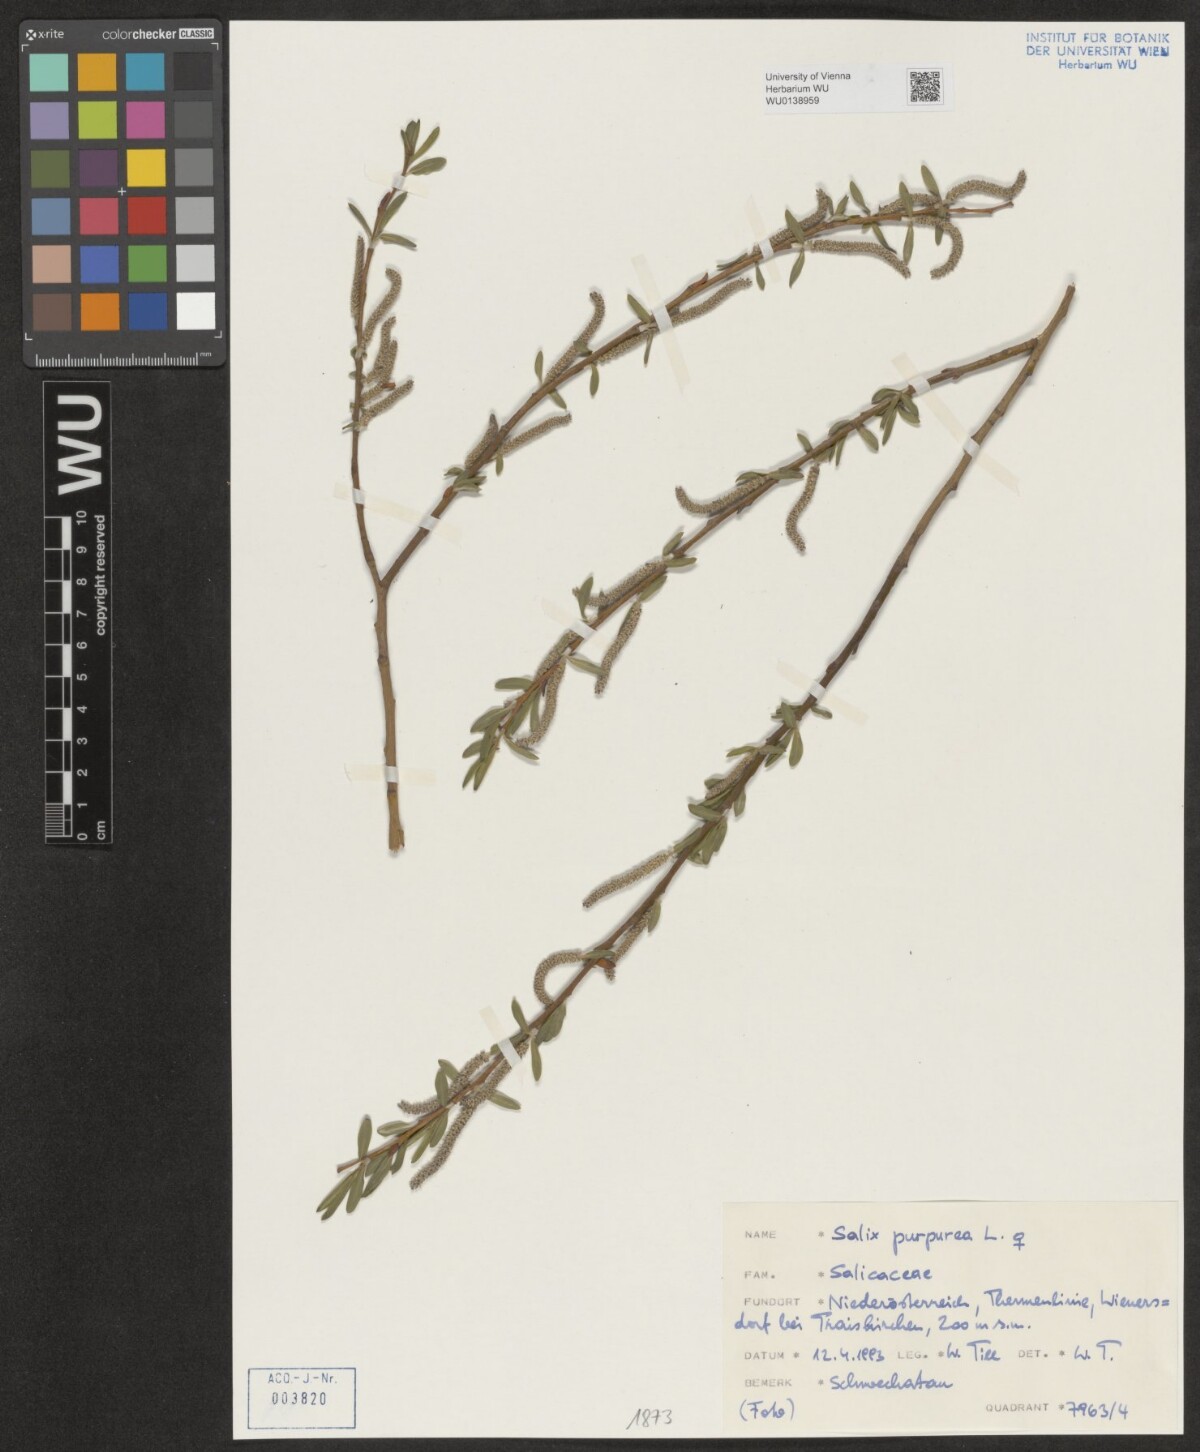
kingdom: Plantae
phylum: Tracheophyta
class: Magnoliopsida
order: Malpighiales
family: Salicaceae
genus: Salix
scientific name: Salix purpurea
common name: Purple willow
